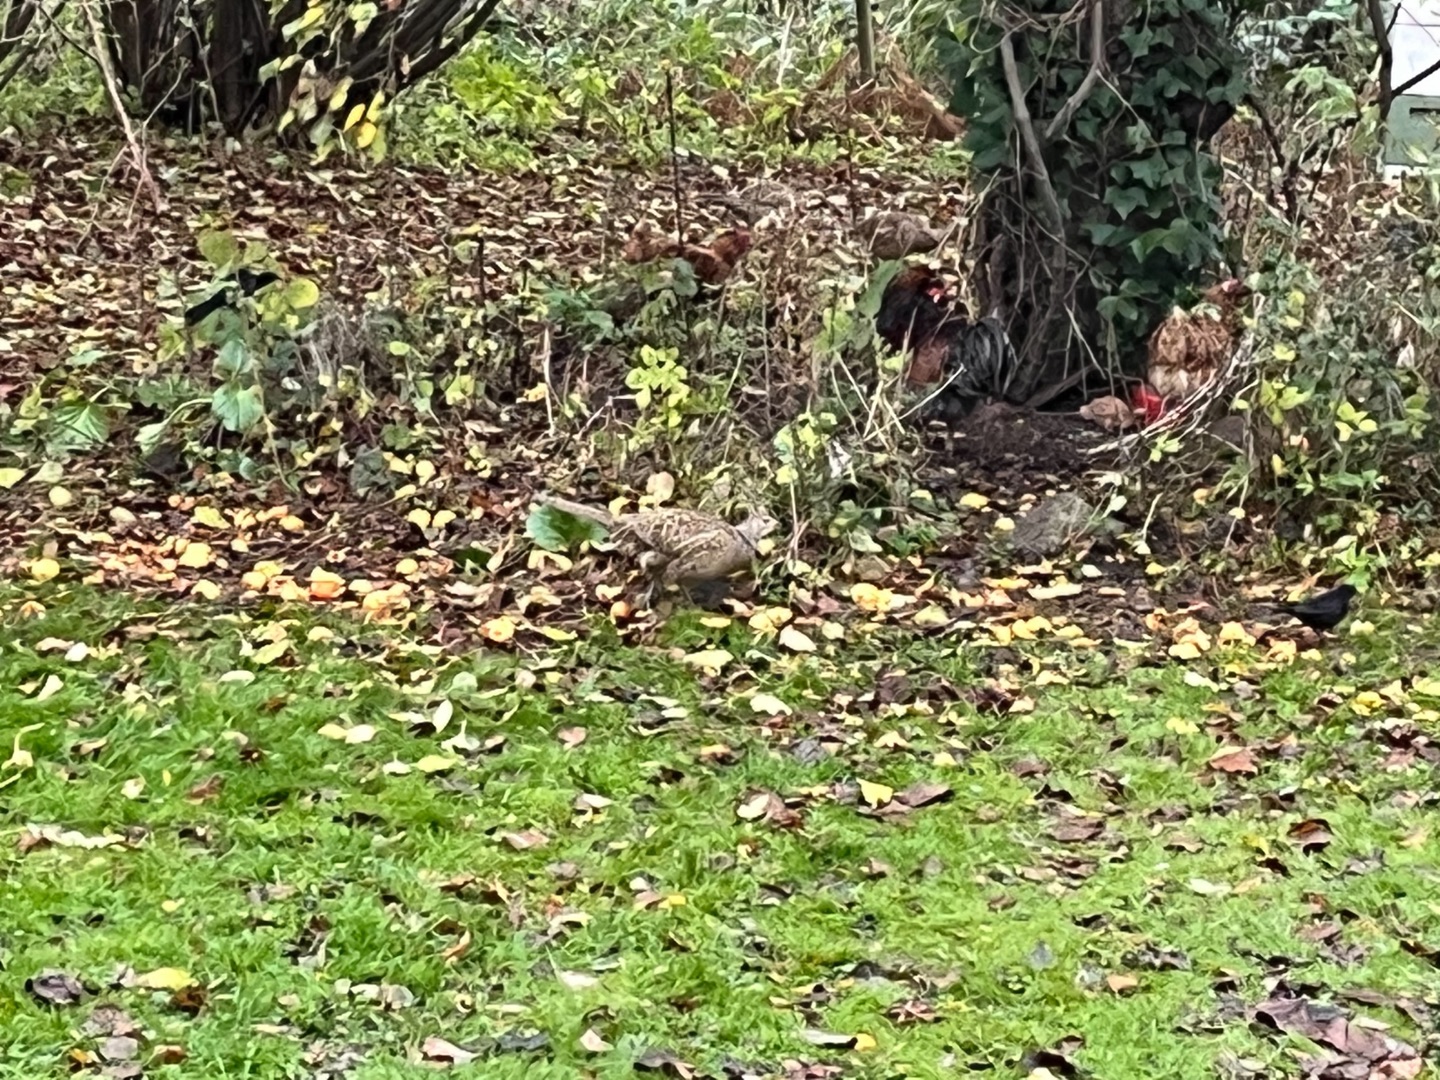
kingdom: Animalia
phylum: Chordata
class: Aves
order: Galliformes
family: Phasianidae
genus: Phasianus
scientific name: Phasianus colchicus
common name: Fasan
